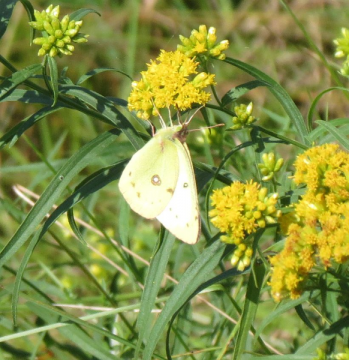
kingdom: Animalia
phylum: Arthropoda
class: Insecta
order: Lepidoptera
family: Pieridae
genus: Colias
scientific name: Colias philodice
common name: Clouded Sulphur
